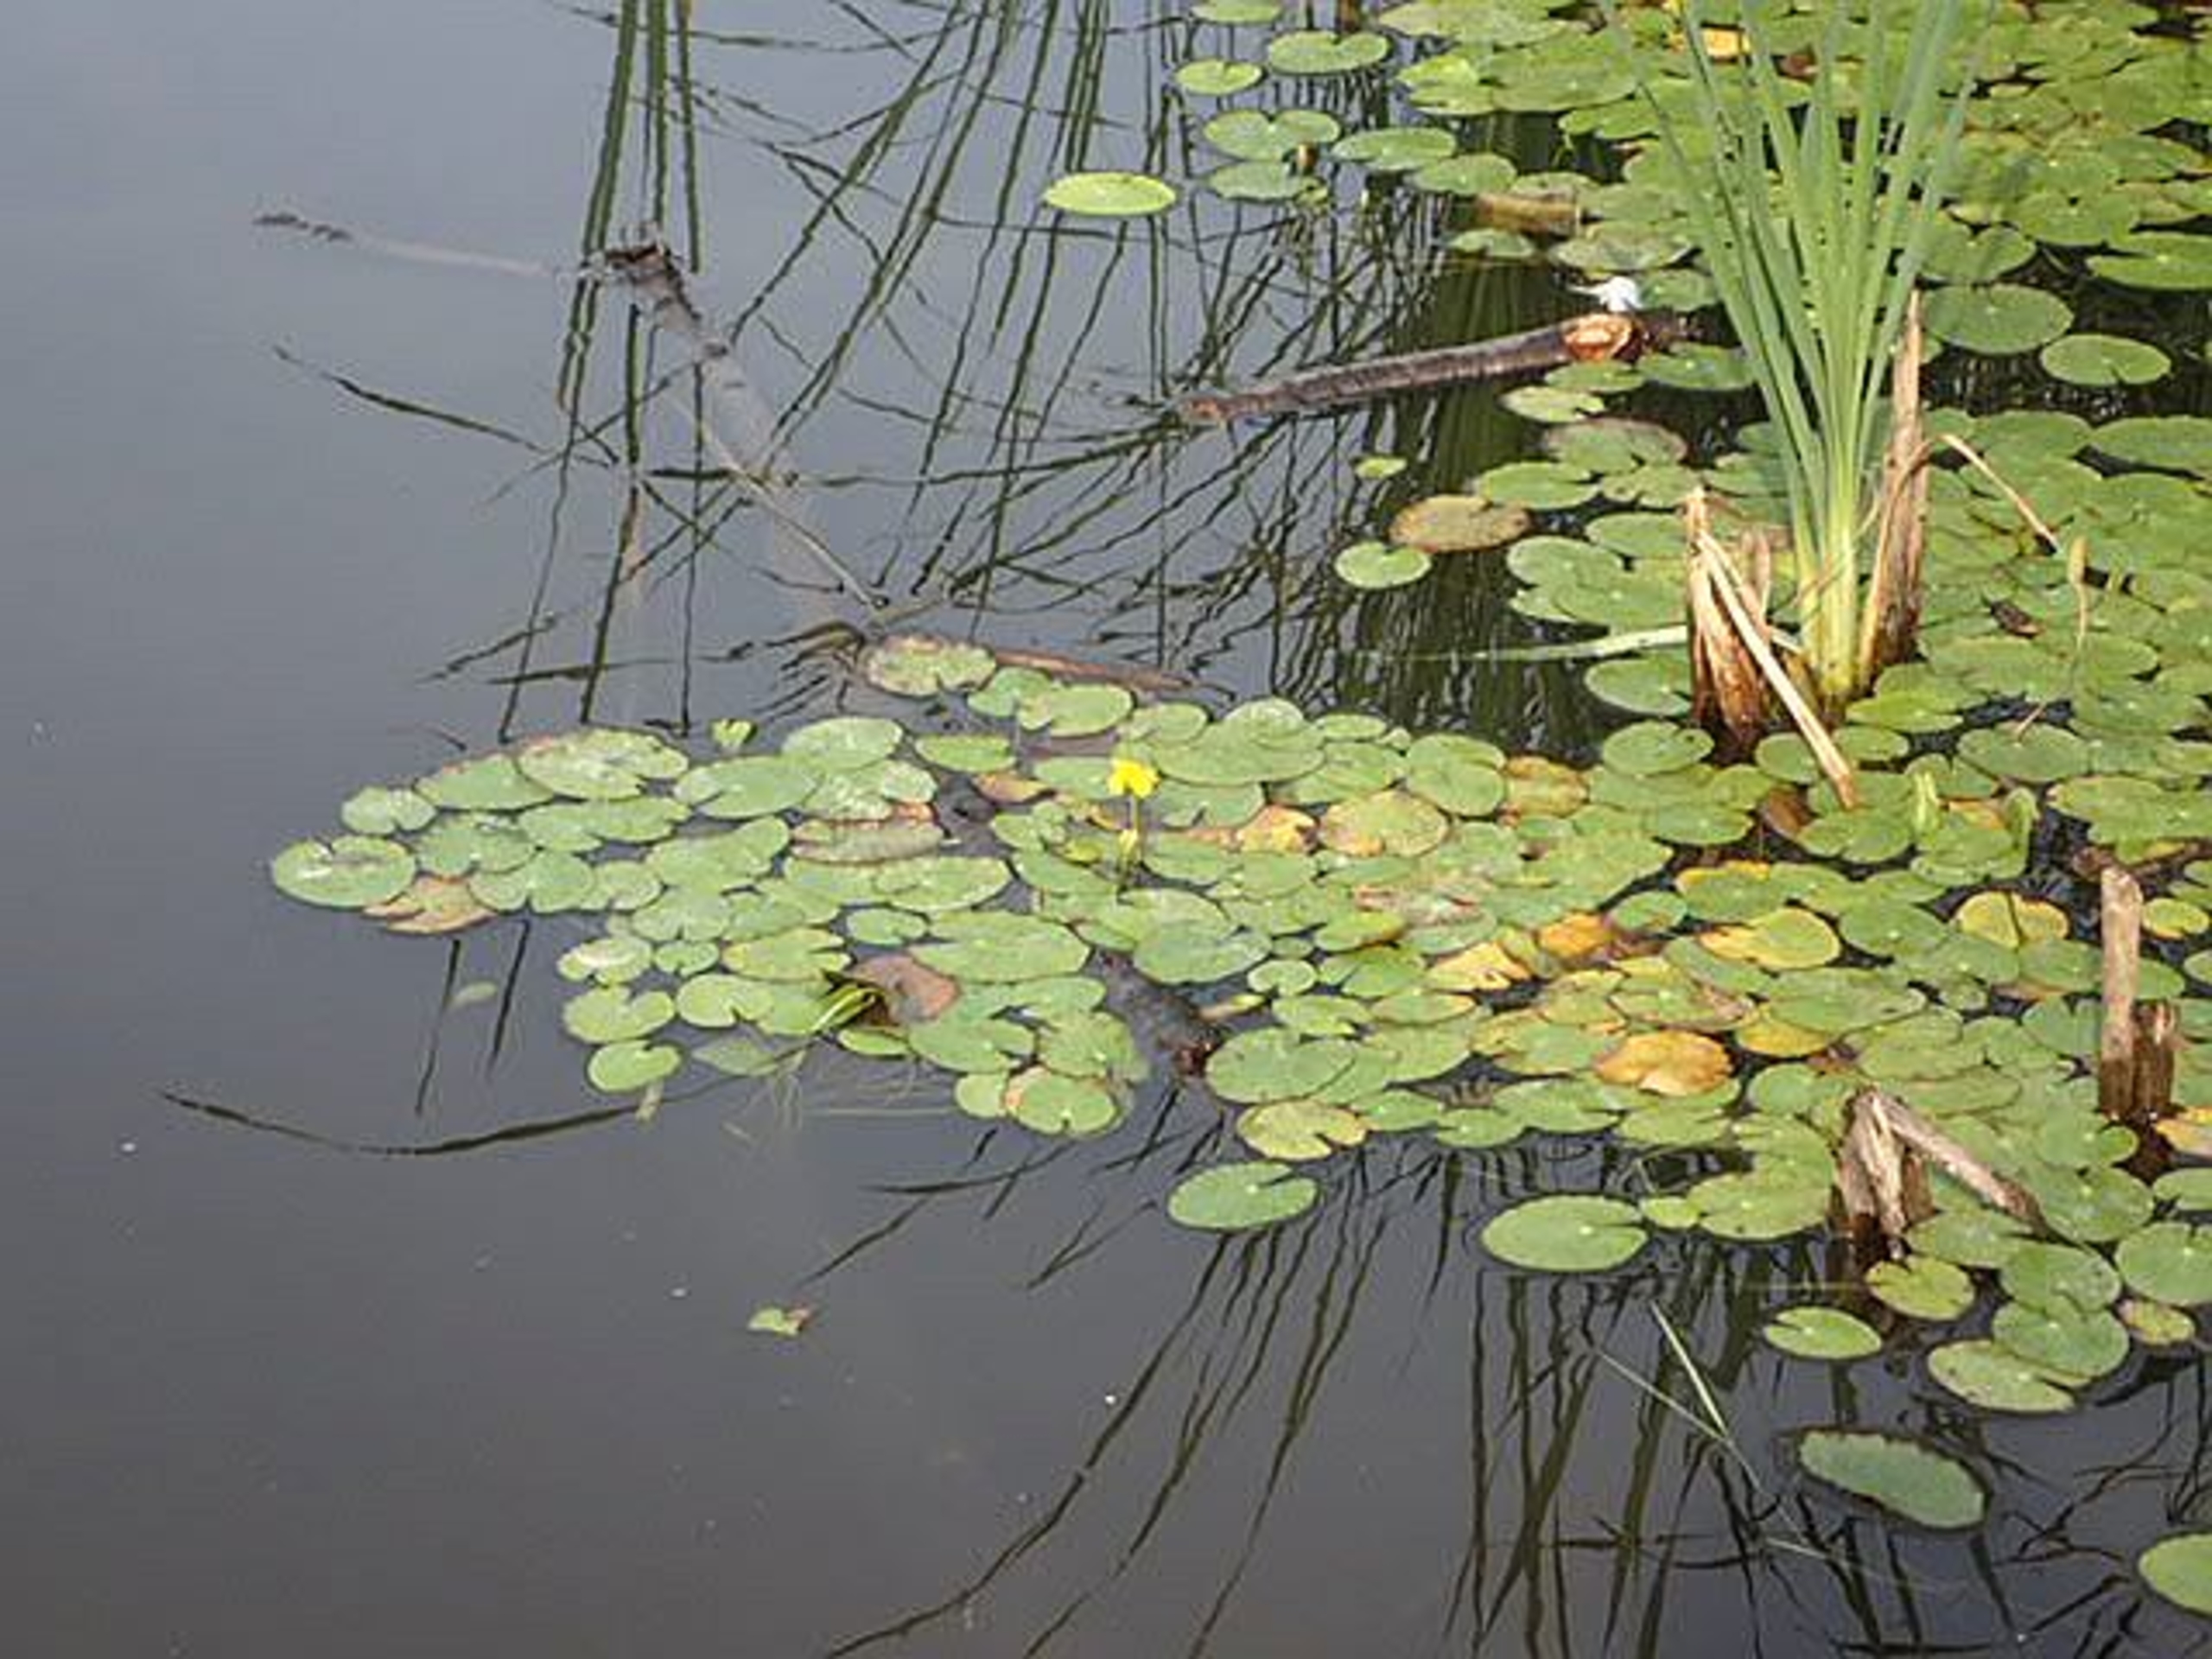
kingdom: Plantae
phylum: Tracheophyta
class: Magnoliopsida
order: Asterales
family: Menyanthaceae
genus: Nymphoides
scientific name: Nymphoides peltata
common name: Søblad
